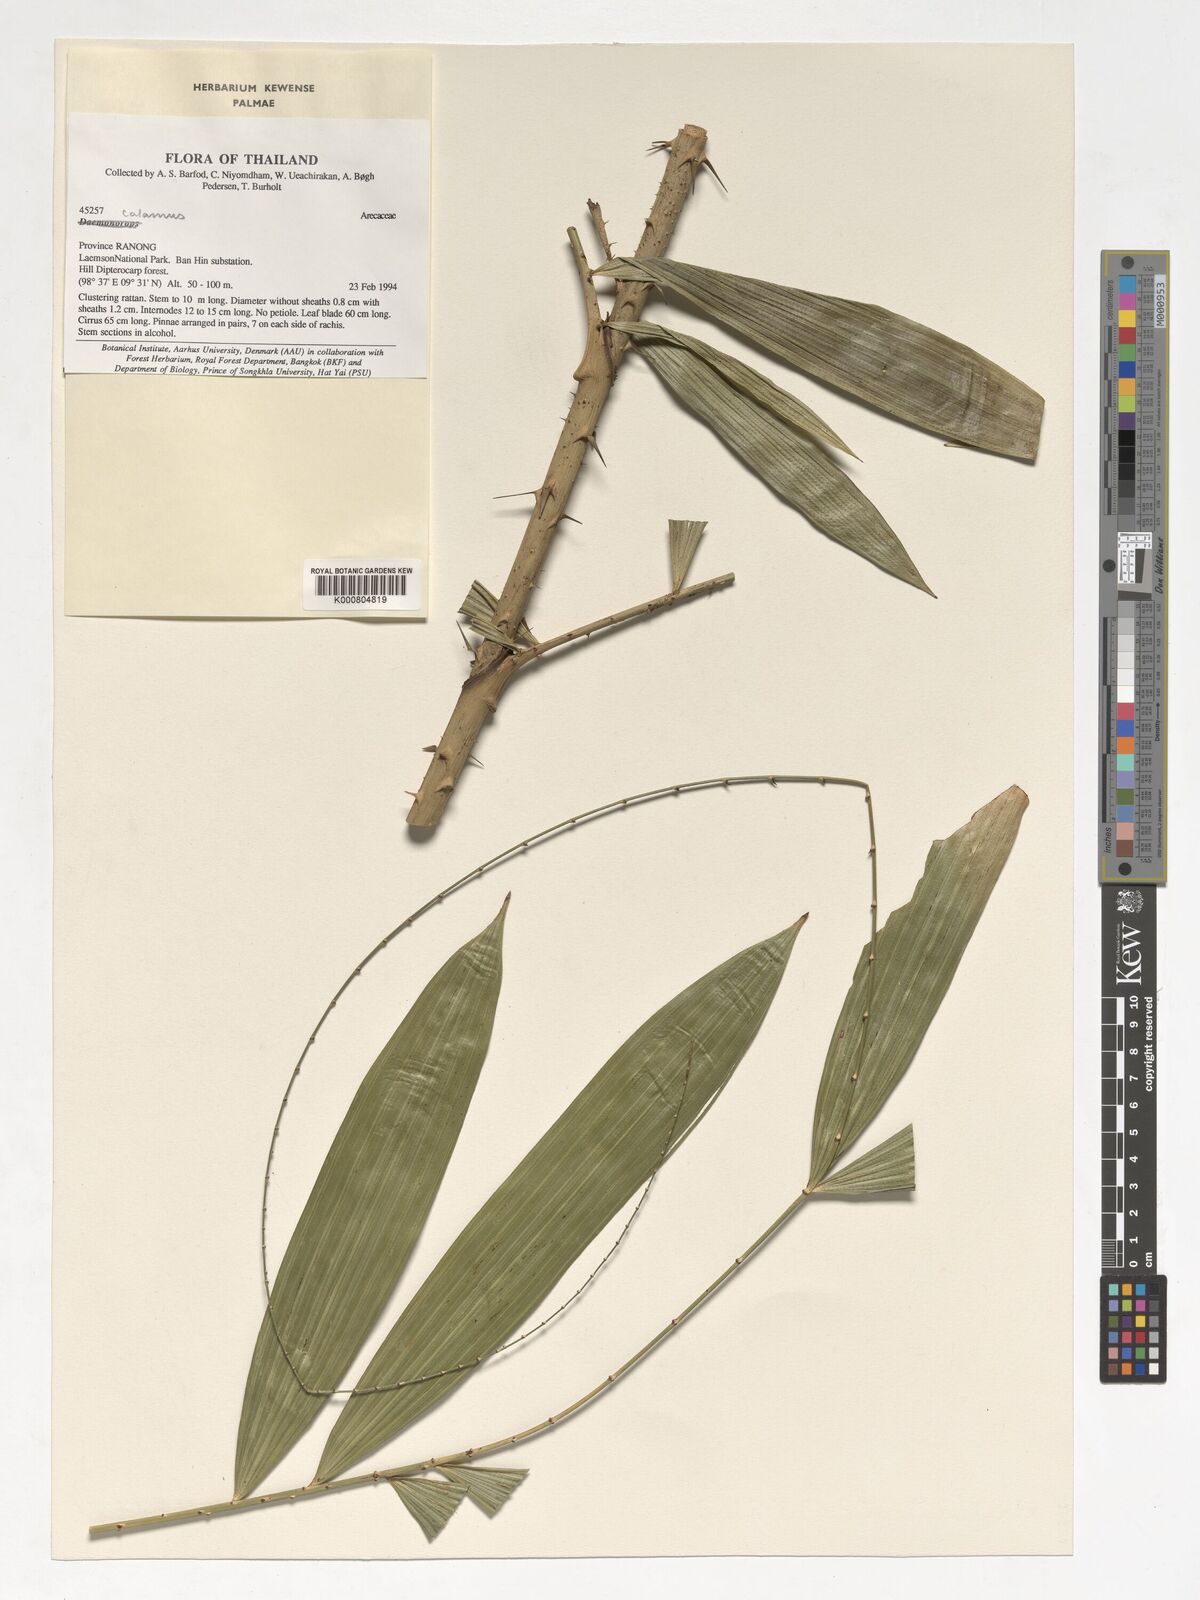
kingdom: Plantae
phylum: Tracheophyta
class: Liliopsida
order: Arecales
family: Arecaceae
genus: Calamus
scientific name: Calamus
